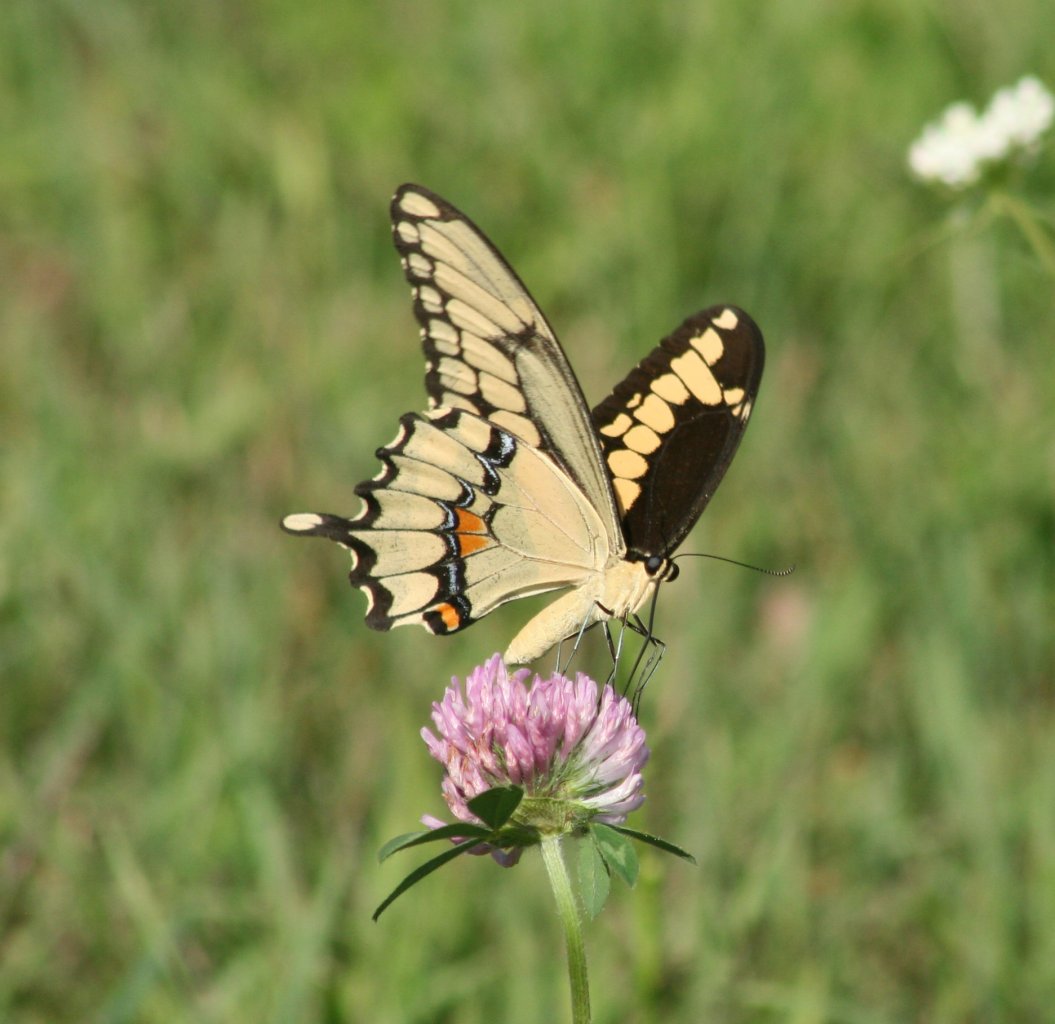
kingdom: Animalia
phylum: Arthropoda
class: Insecta
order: Lepidoptera
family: Papilionidae
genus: Papilio
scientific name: Papilio cresphontes
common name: Eastern Giant Swallowtail
